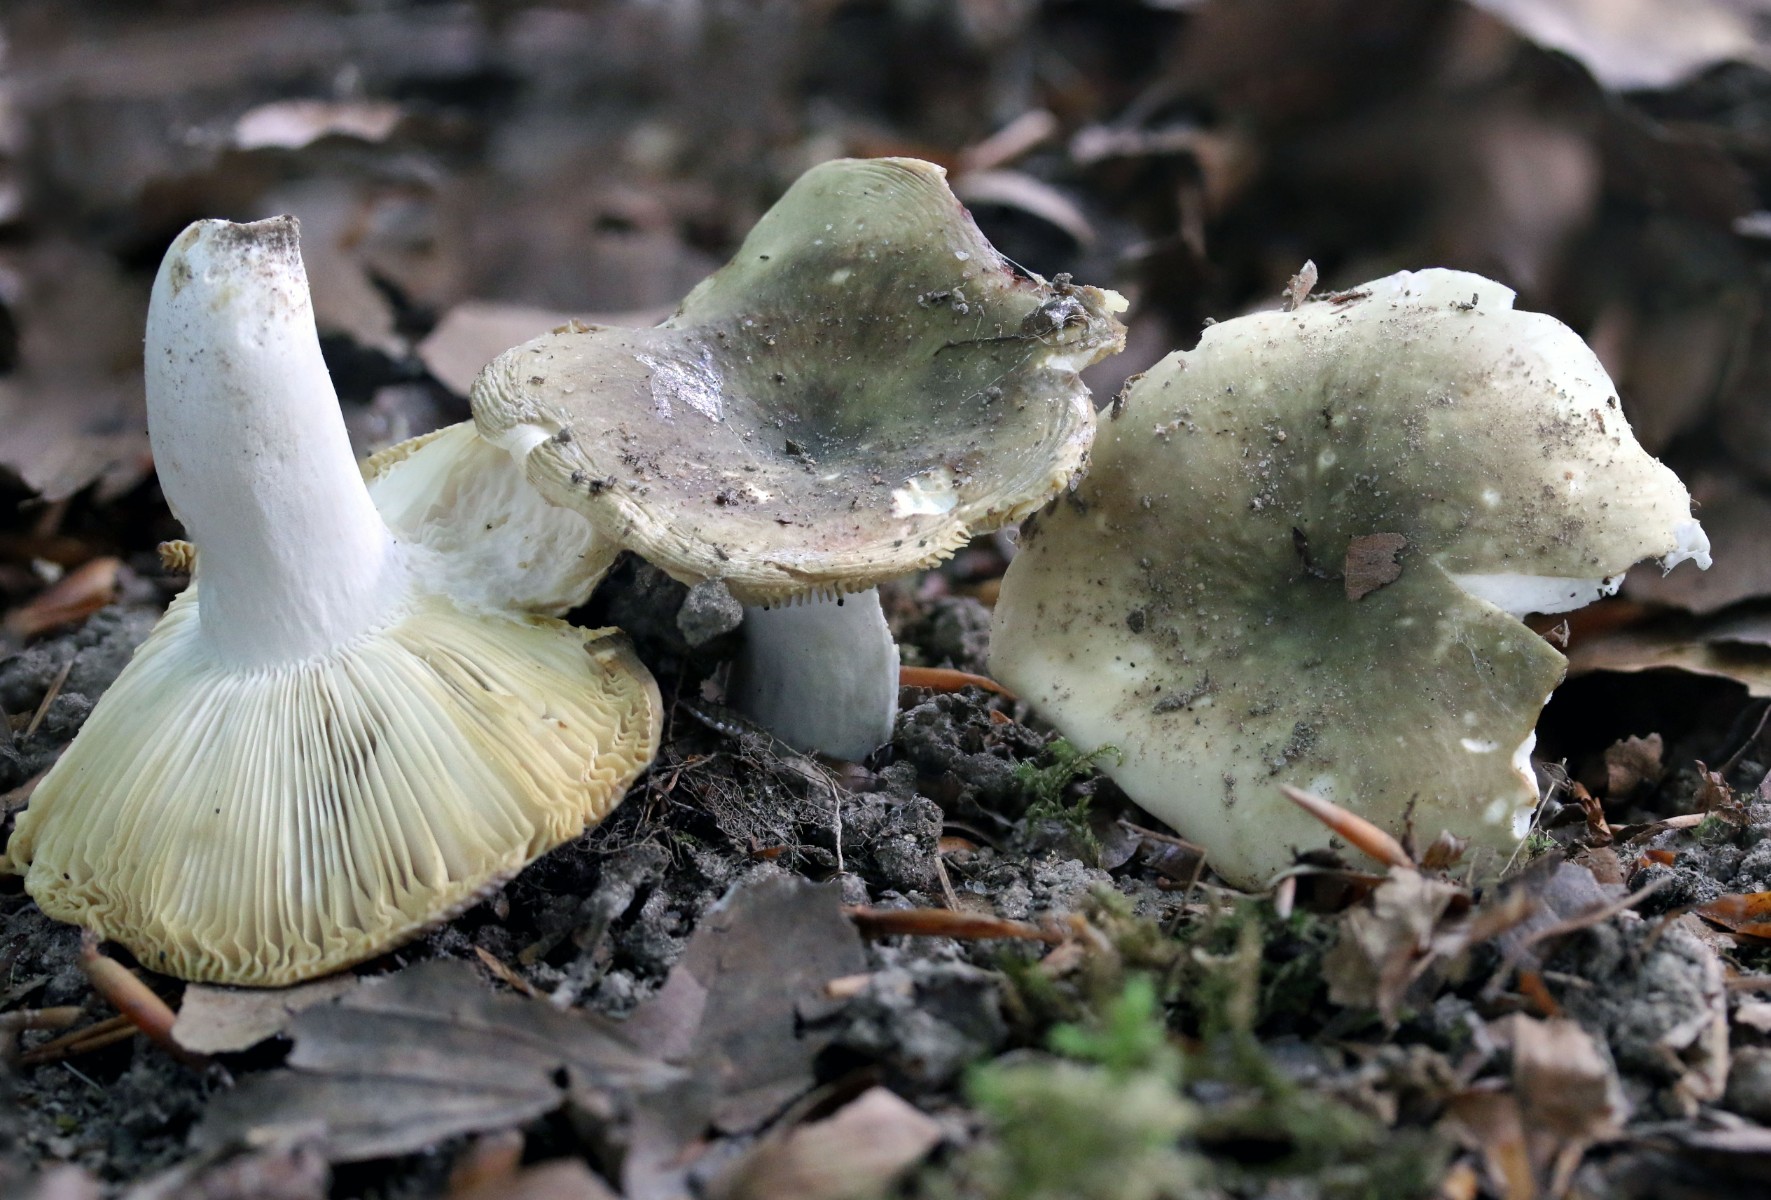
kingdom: Fungi
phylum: Basidiomycota
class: Agaricomycetes
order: Russulales
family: Russulaceae
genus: Russula
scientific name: Russula heterophylla
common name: gaffelbladet skørhat
